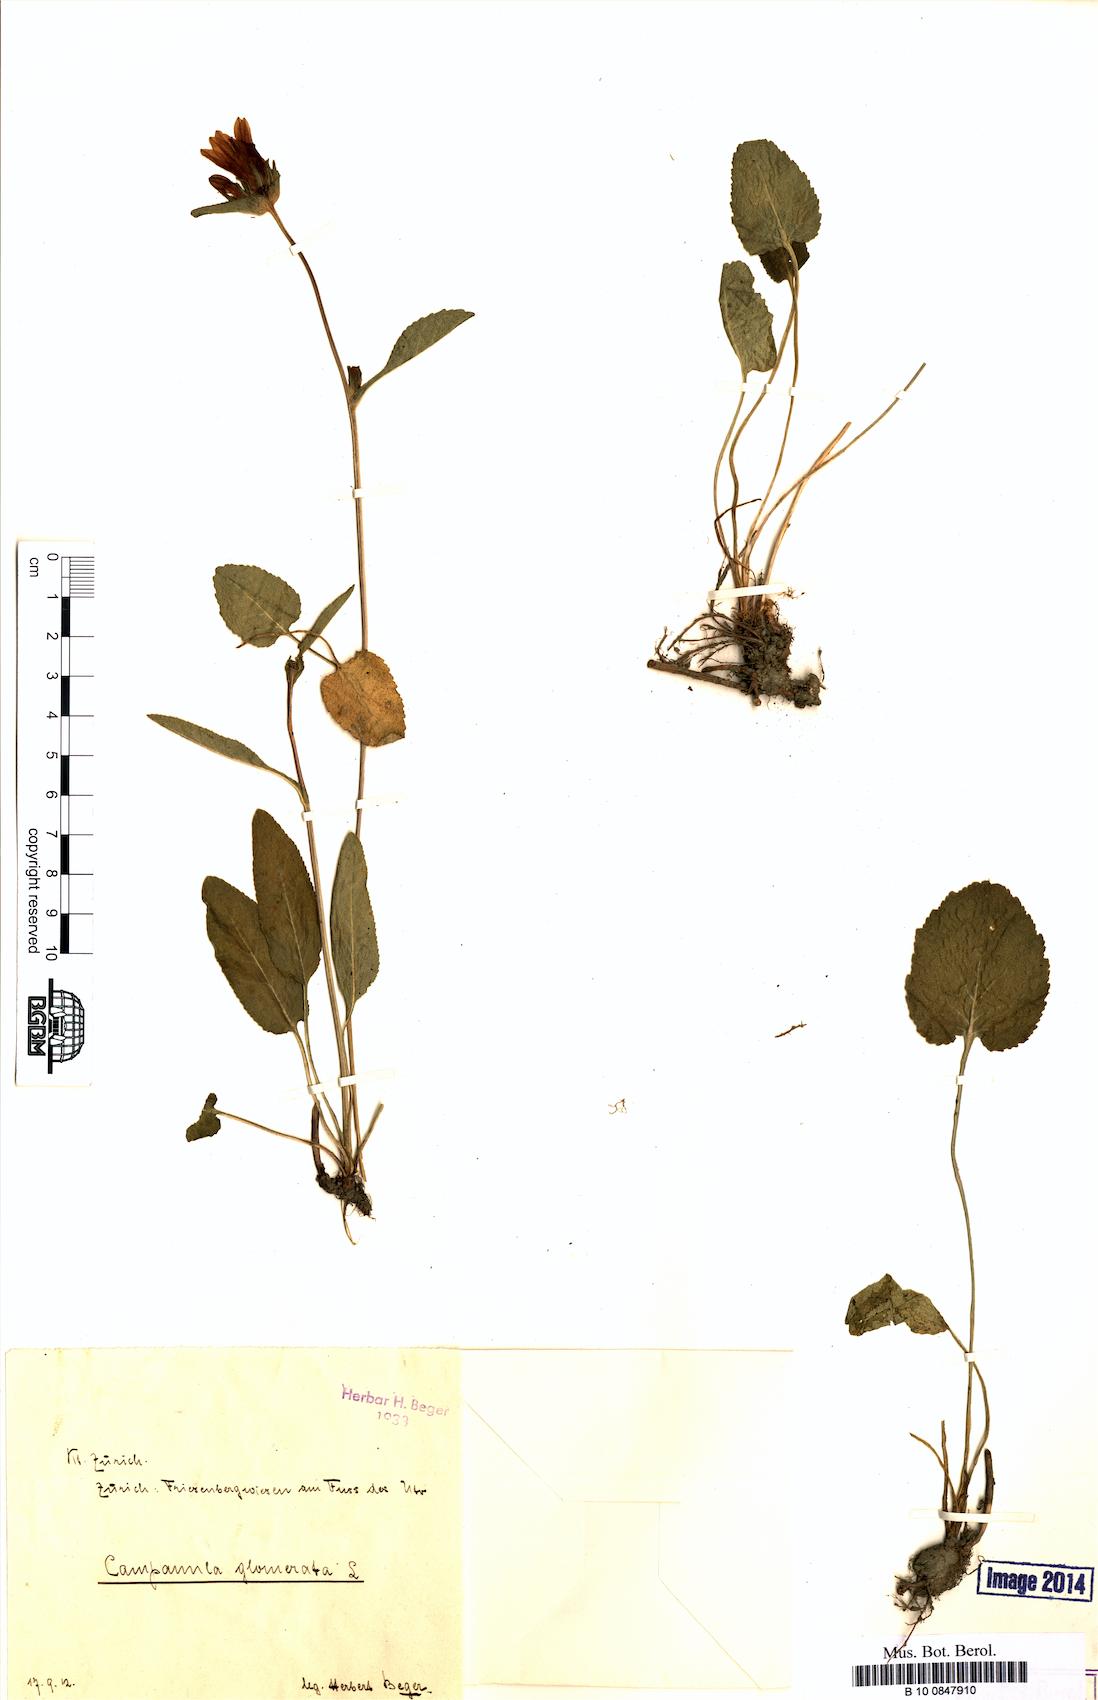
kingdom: Plantae
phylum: Tracheophyta
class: Magnoliopsida
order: Asterales
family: Campanulaceae
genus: Campanula
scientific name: Campanula glomerata
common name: Clustered bellflower
